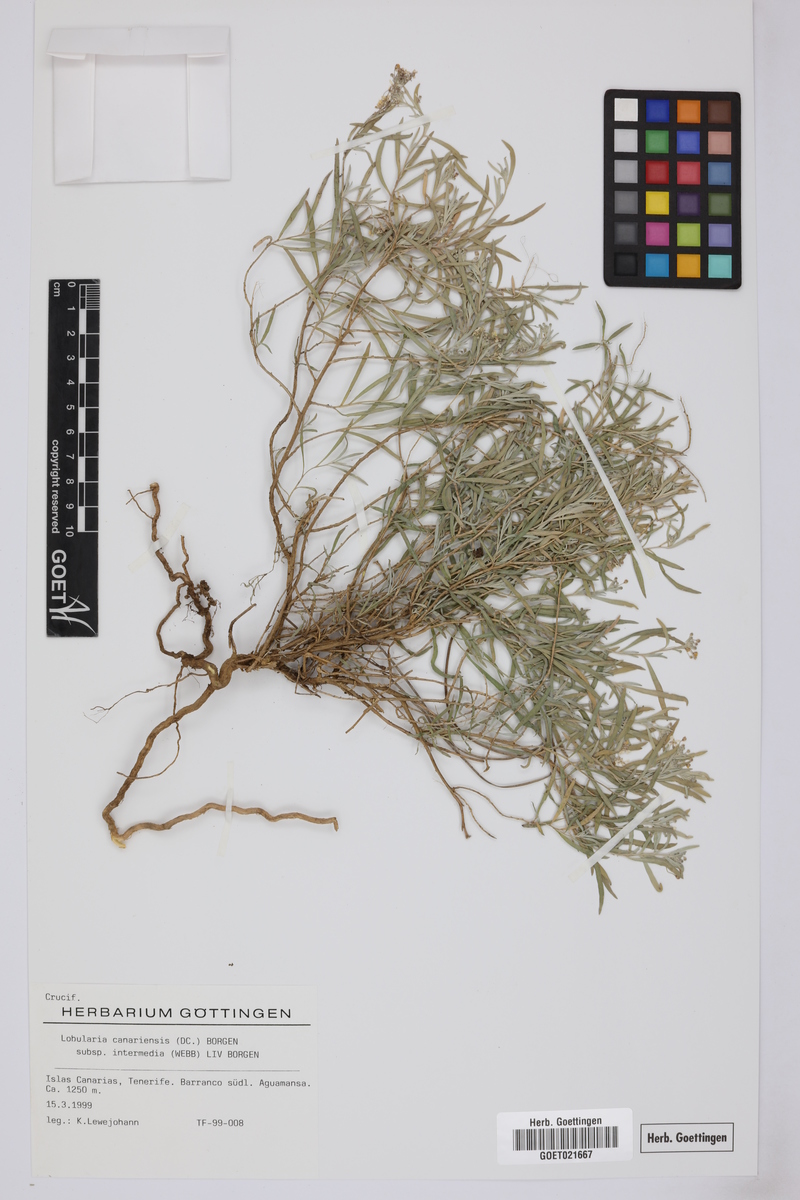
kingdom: Plantae
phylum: Tracheophyta
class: Magnoliopsida
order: Brassicales
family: Brassicaceae
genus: Lobularia
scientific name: Lobularia canariensis
